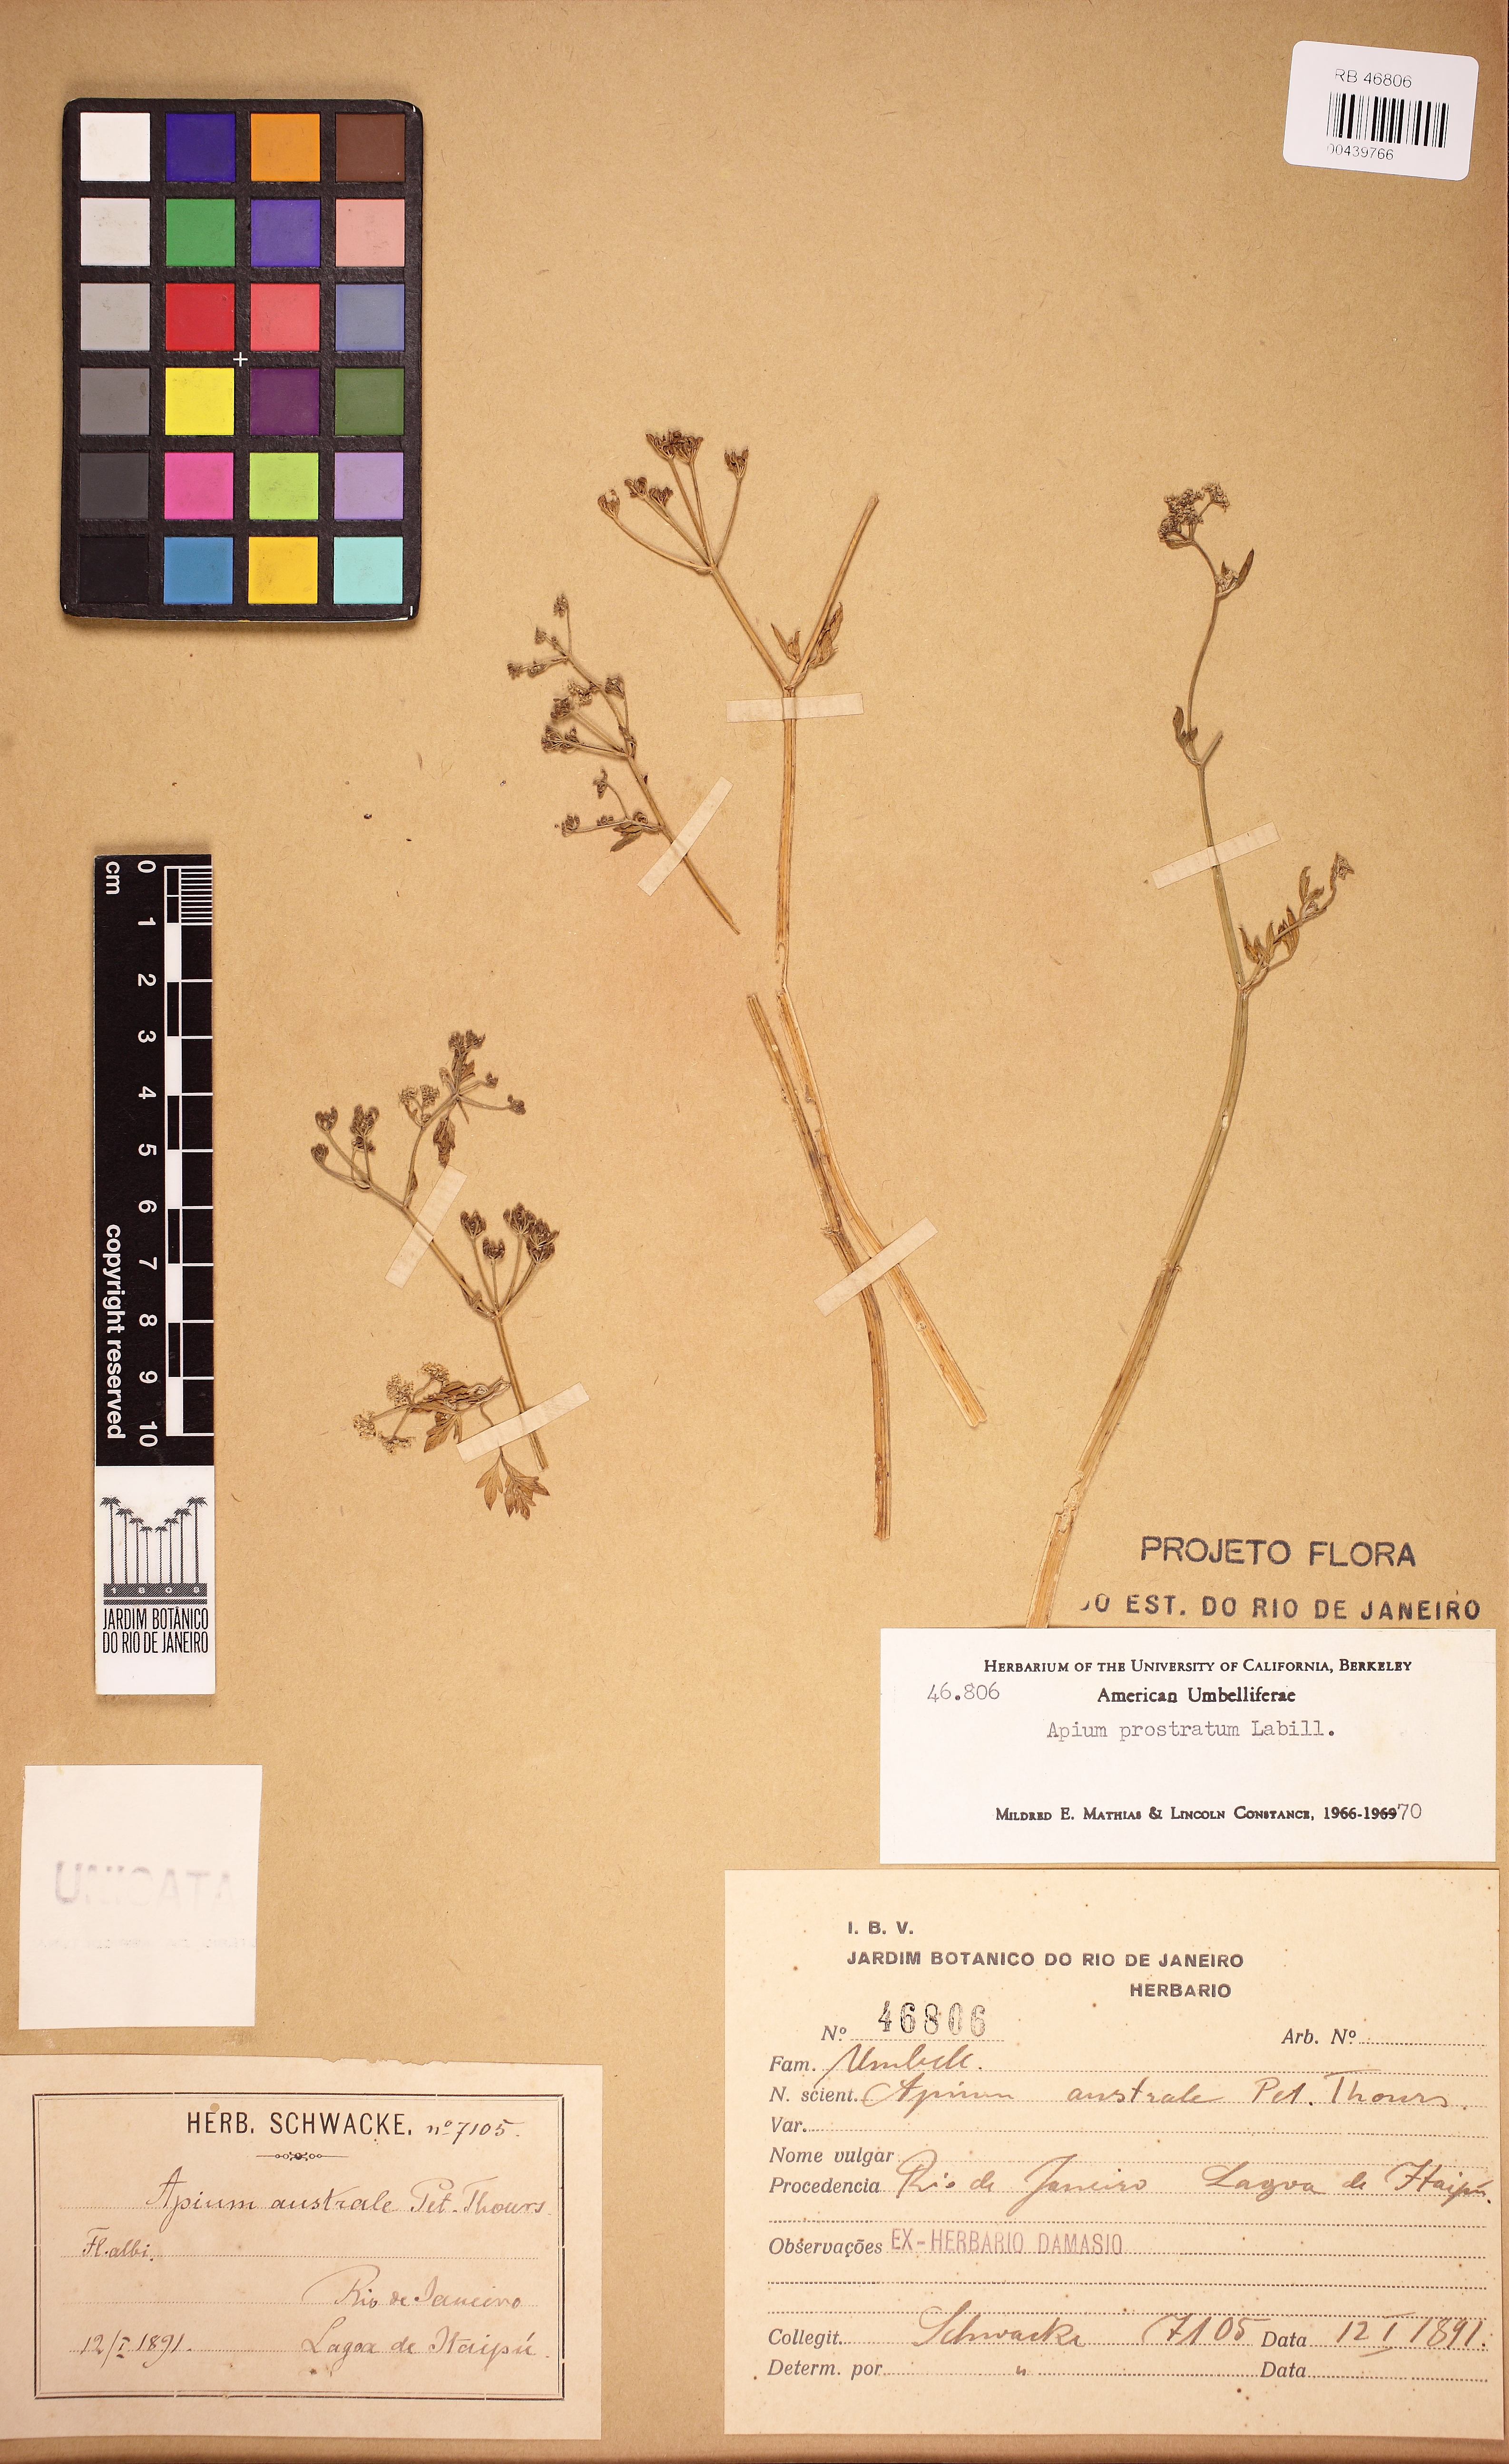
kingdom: Plantae
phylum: Tracheophyta
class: Magnoliopsida
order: Apiales
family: Apiaceae
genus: Apium
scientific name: Apium prostratum
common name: Prostrate marshwort
